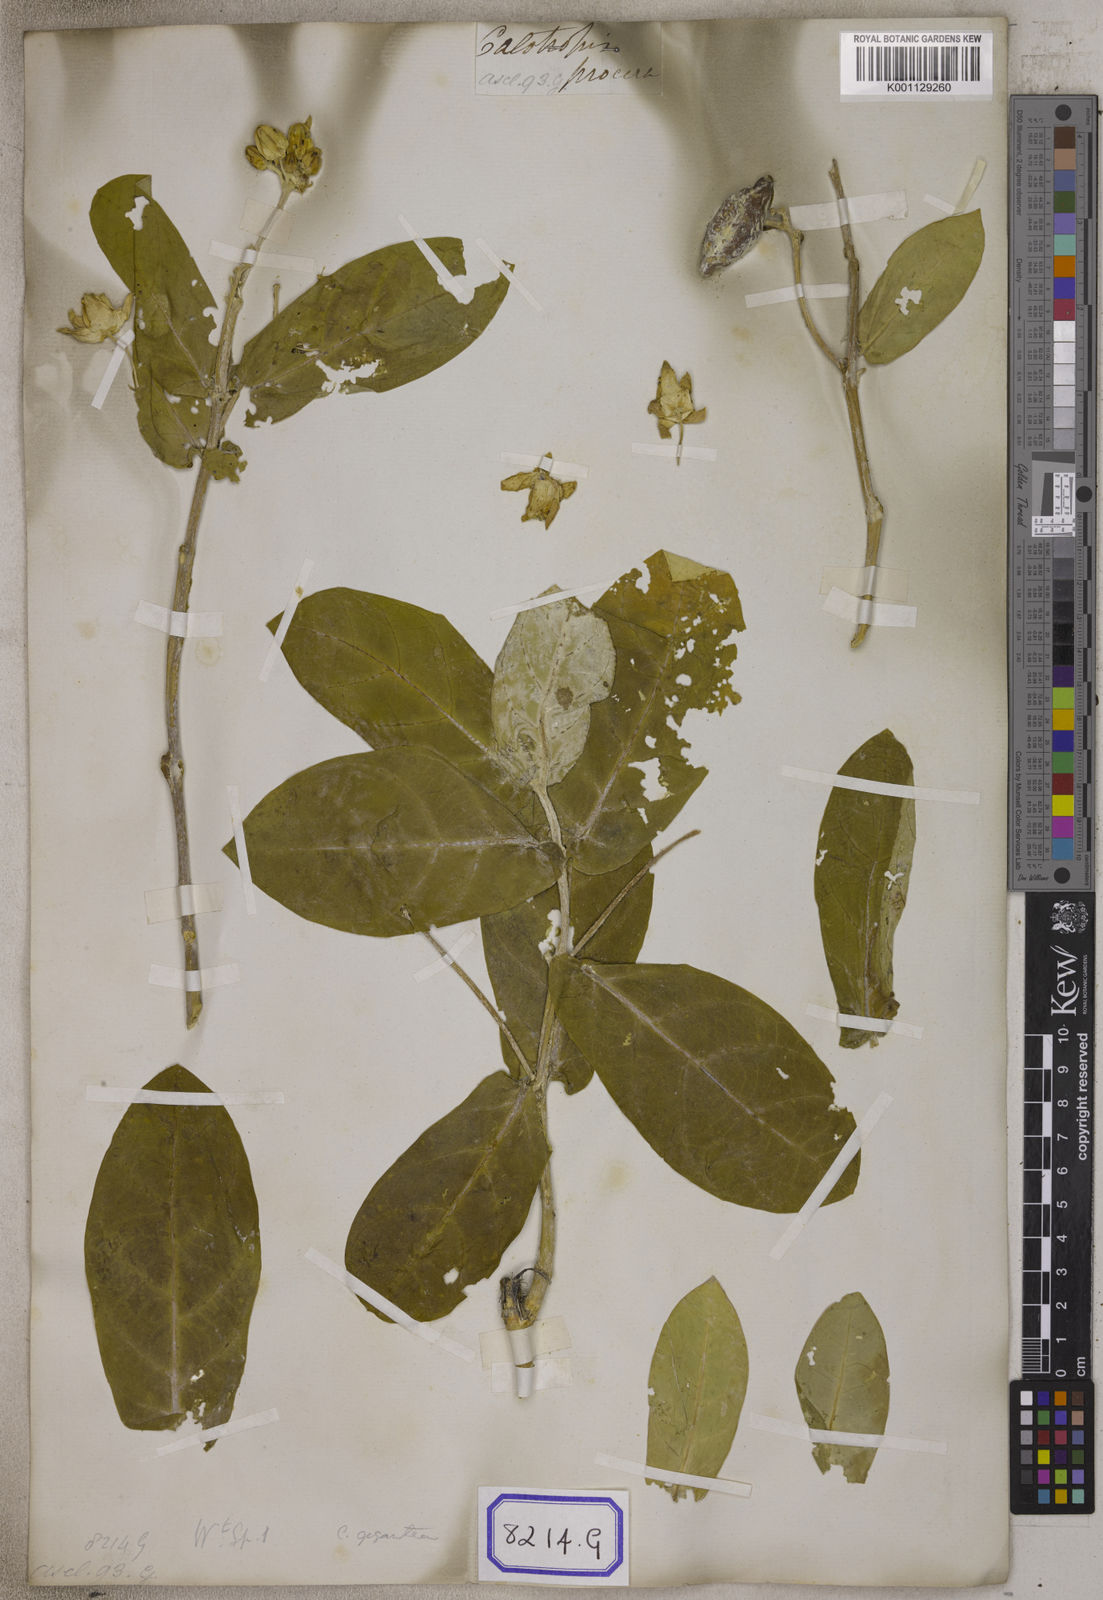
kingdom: Plantae
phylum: Tracheophyta
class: Magnoliopsida
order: Gentianales
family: Apocynaceae
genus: Calotropis
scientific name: Calotropis gigantea
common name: Crown flower
